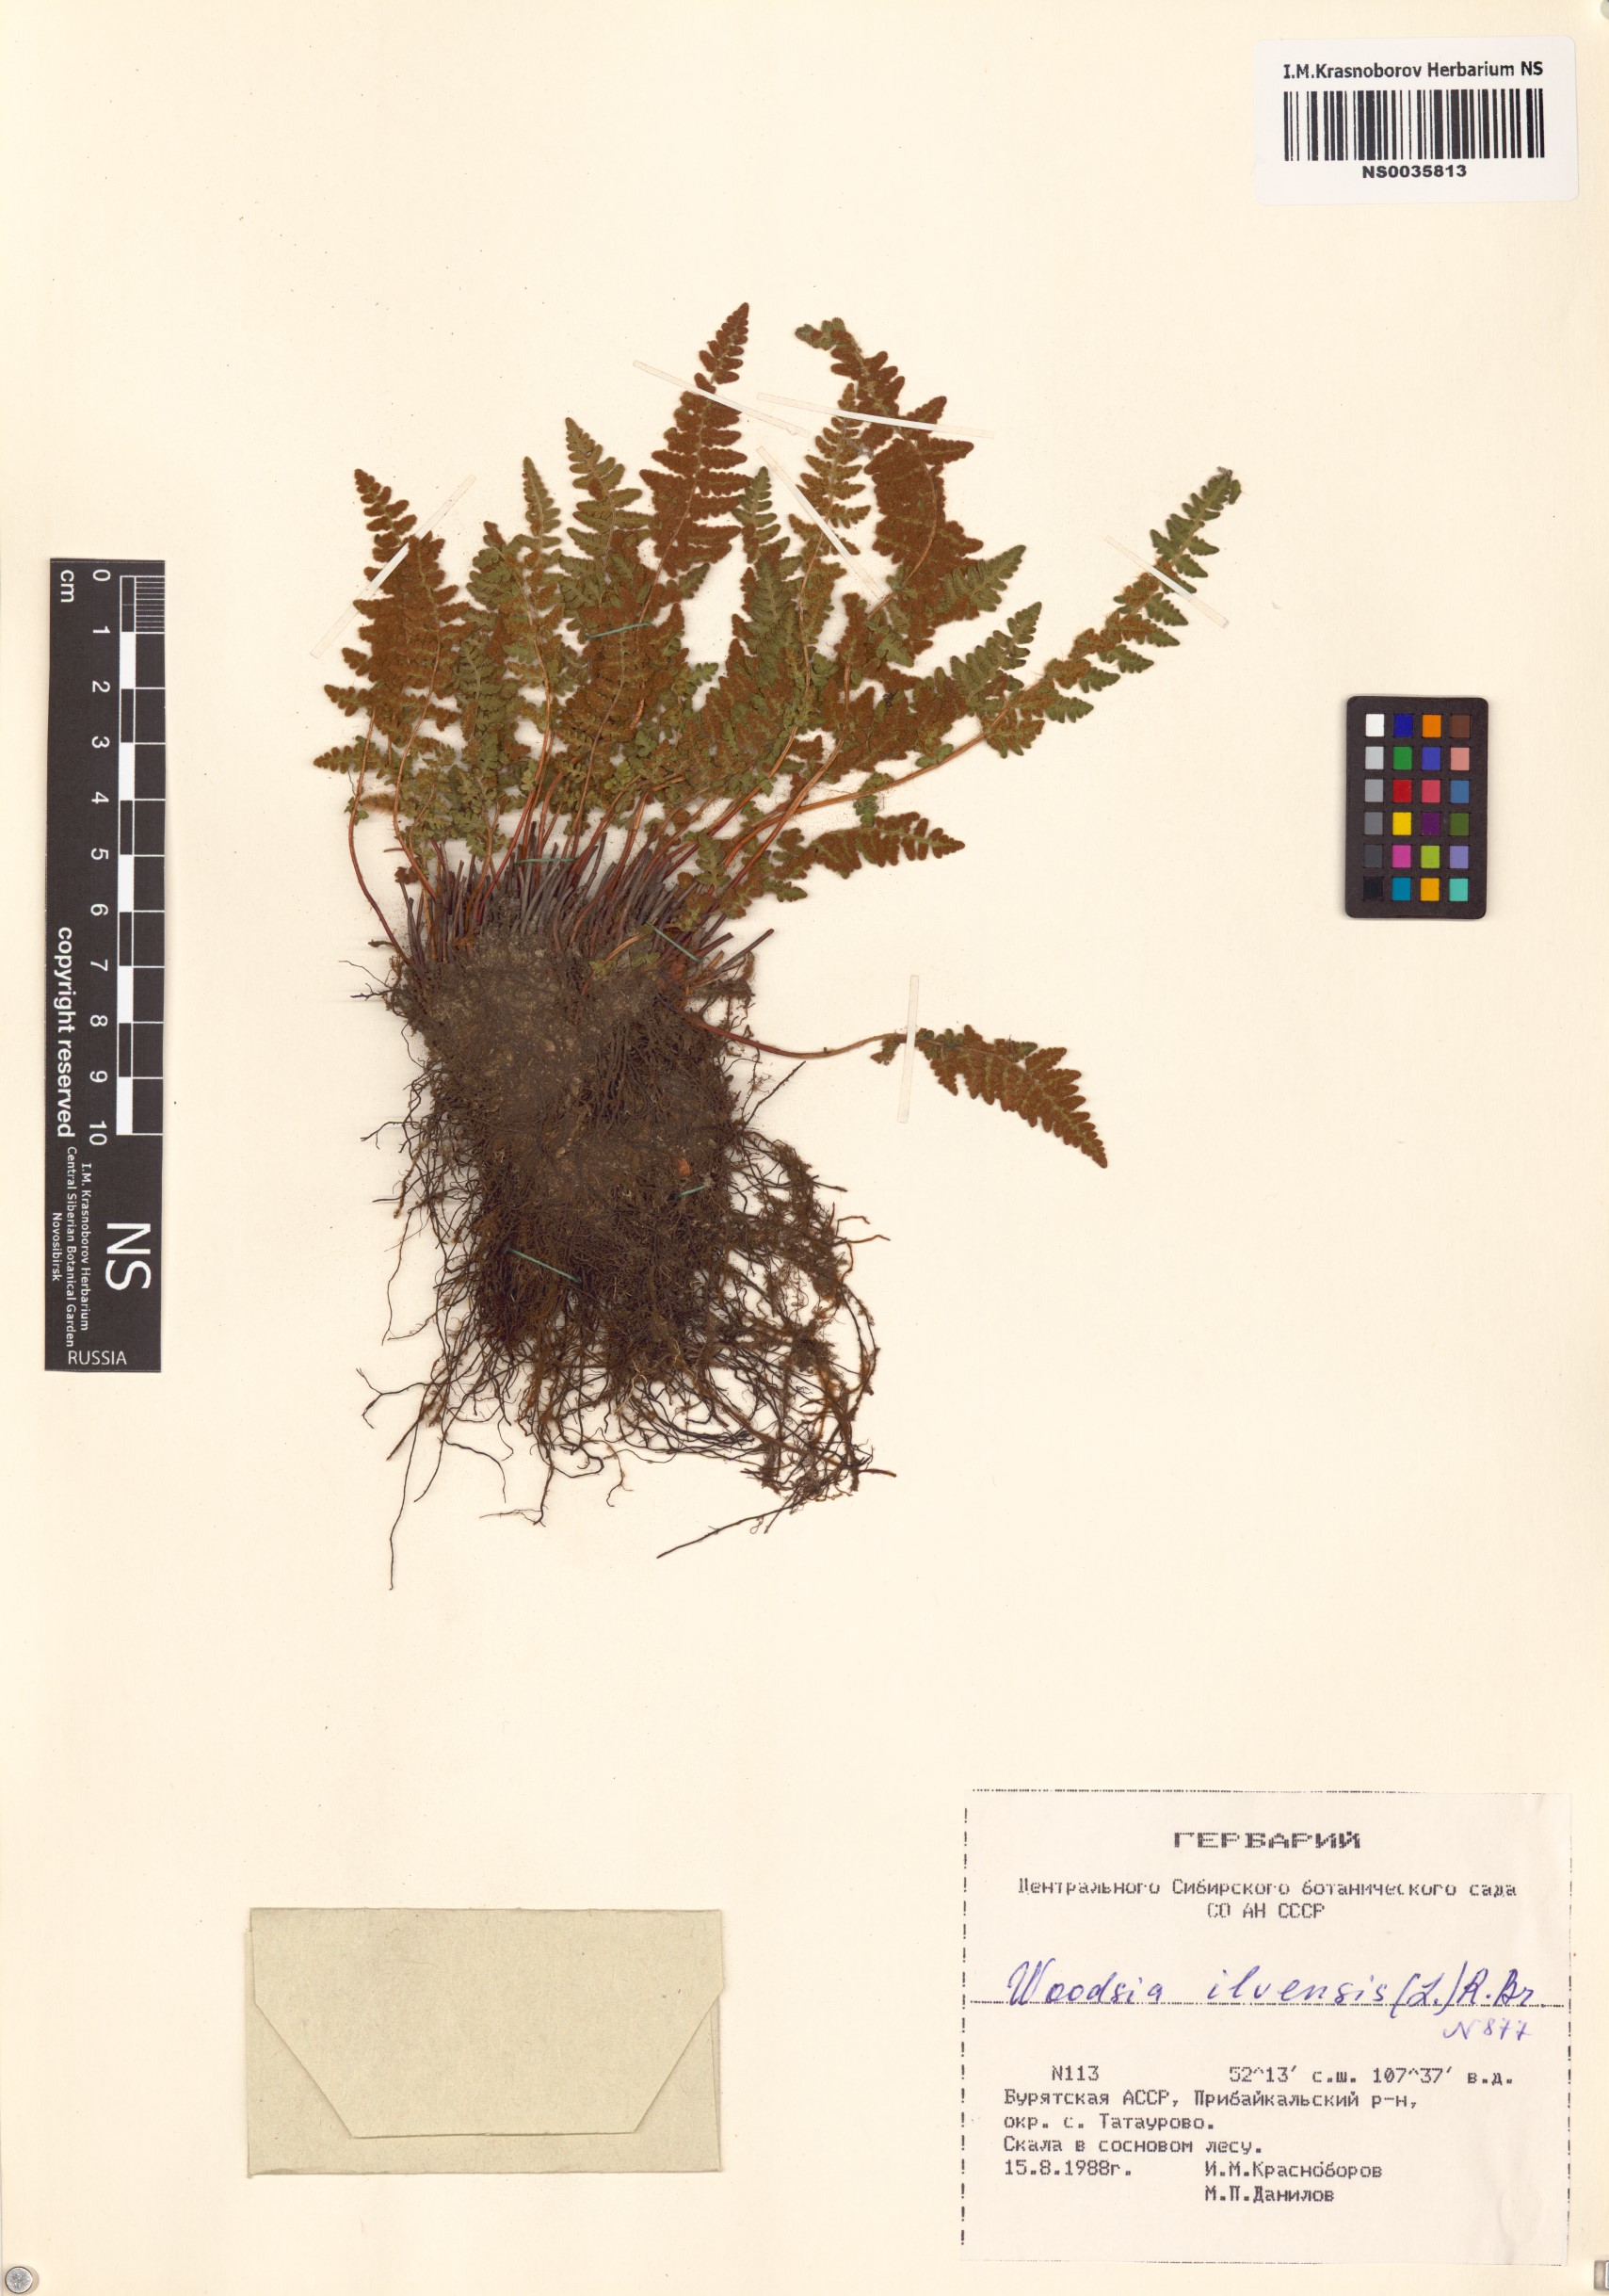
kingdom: Plantae
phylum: Tracheophyta
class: Polypodiopsida
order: Polypodiales
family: Woodsiaceae
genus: Woodsia
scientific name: Woodsia ilvensis
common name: Fragrant woodsia
